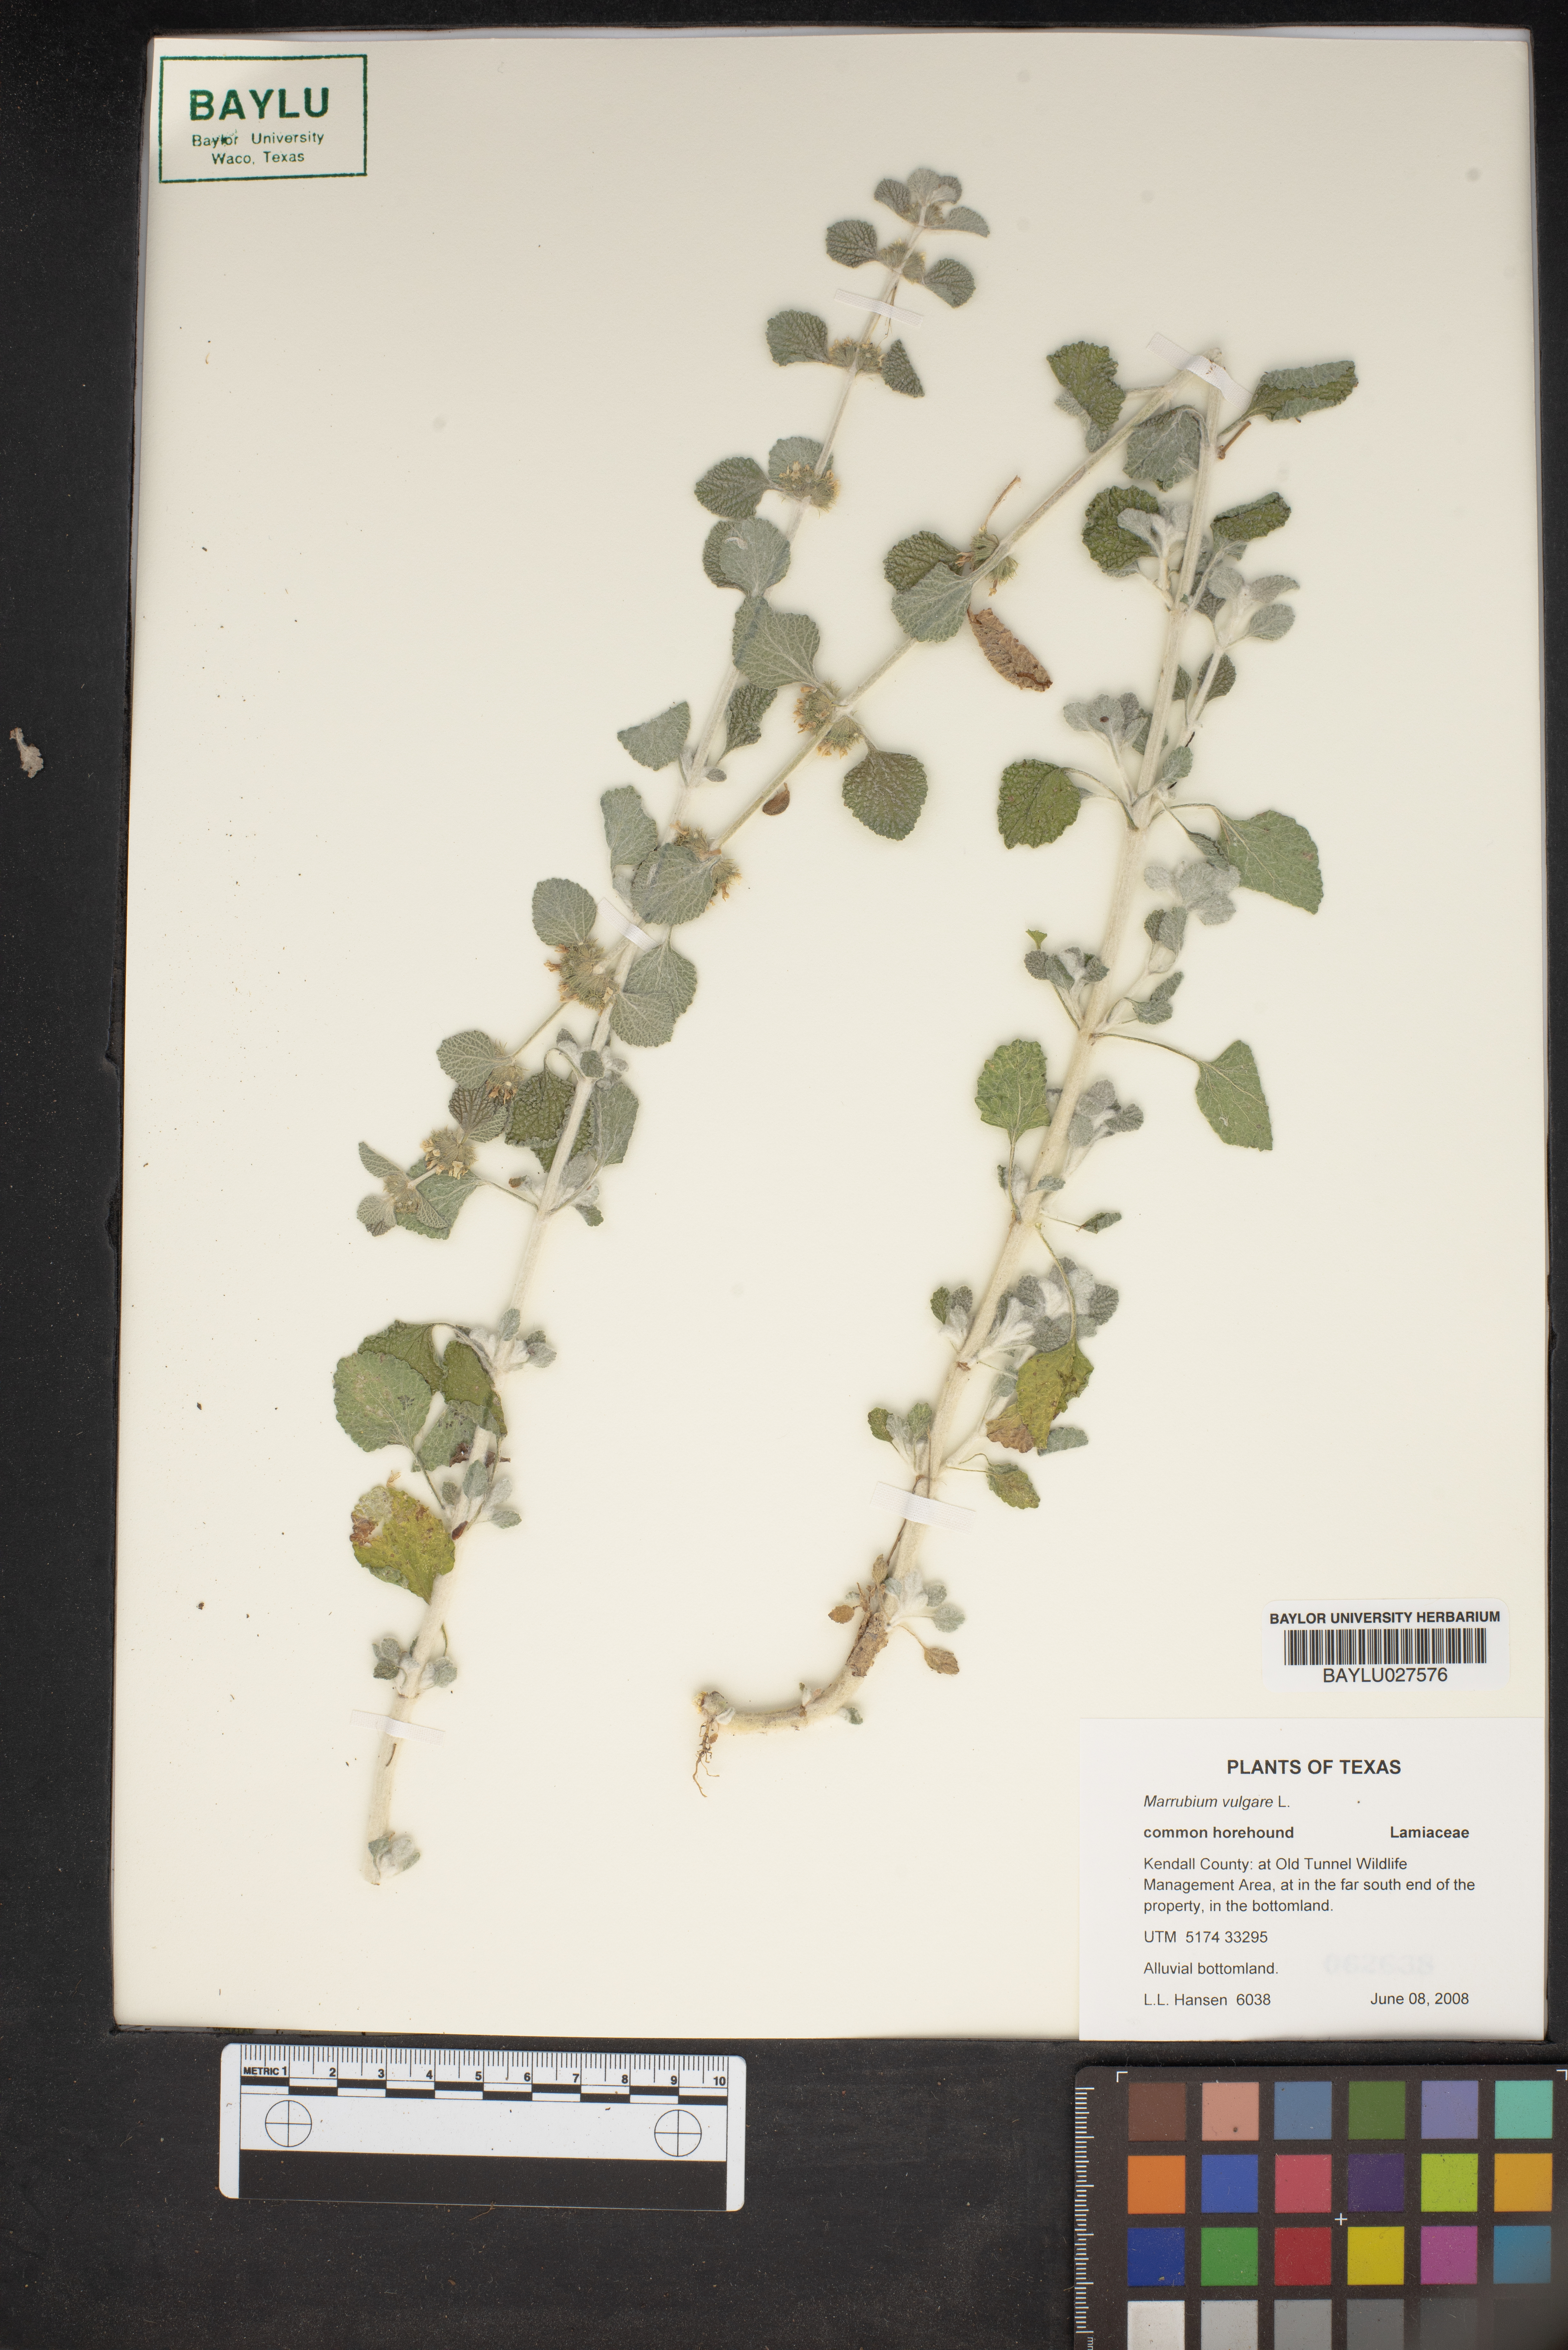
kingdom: Plantae
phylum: Tracheophyta
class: Magnoliopsida
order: Lamiales
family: Lamiaceae
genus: Marrubium
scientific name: Marrubium vulgare
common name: Horehound
